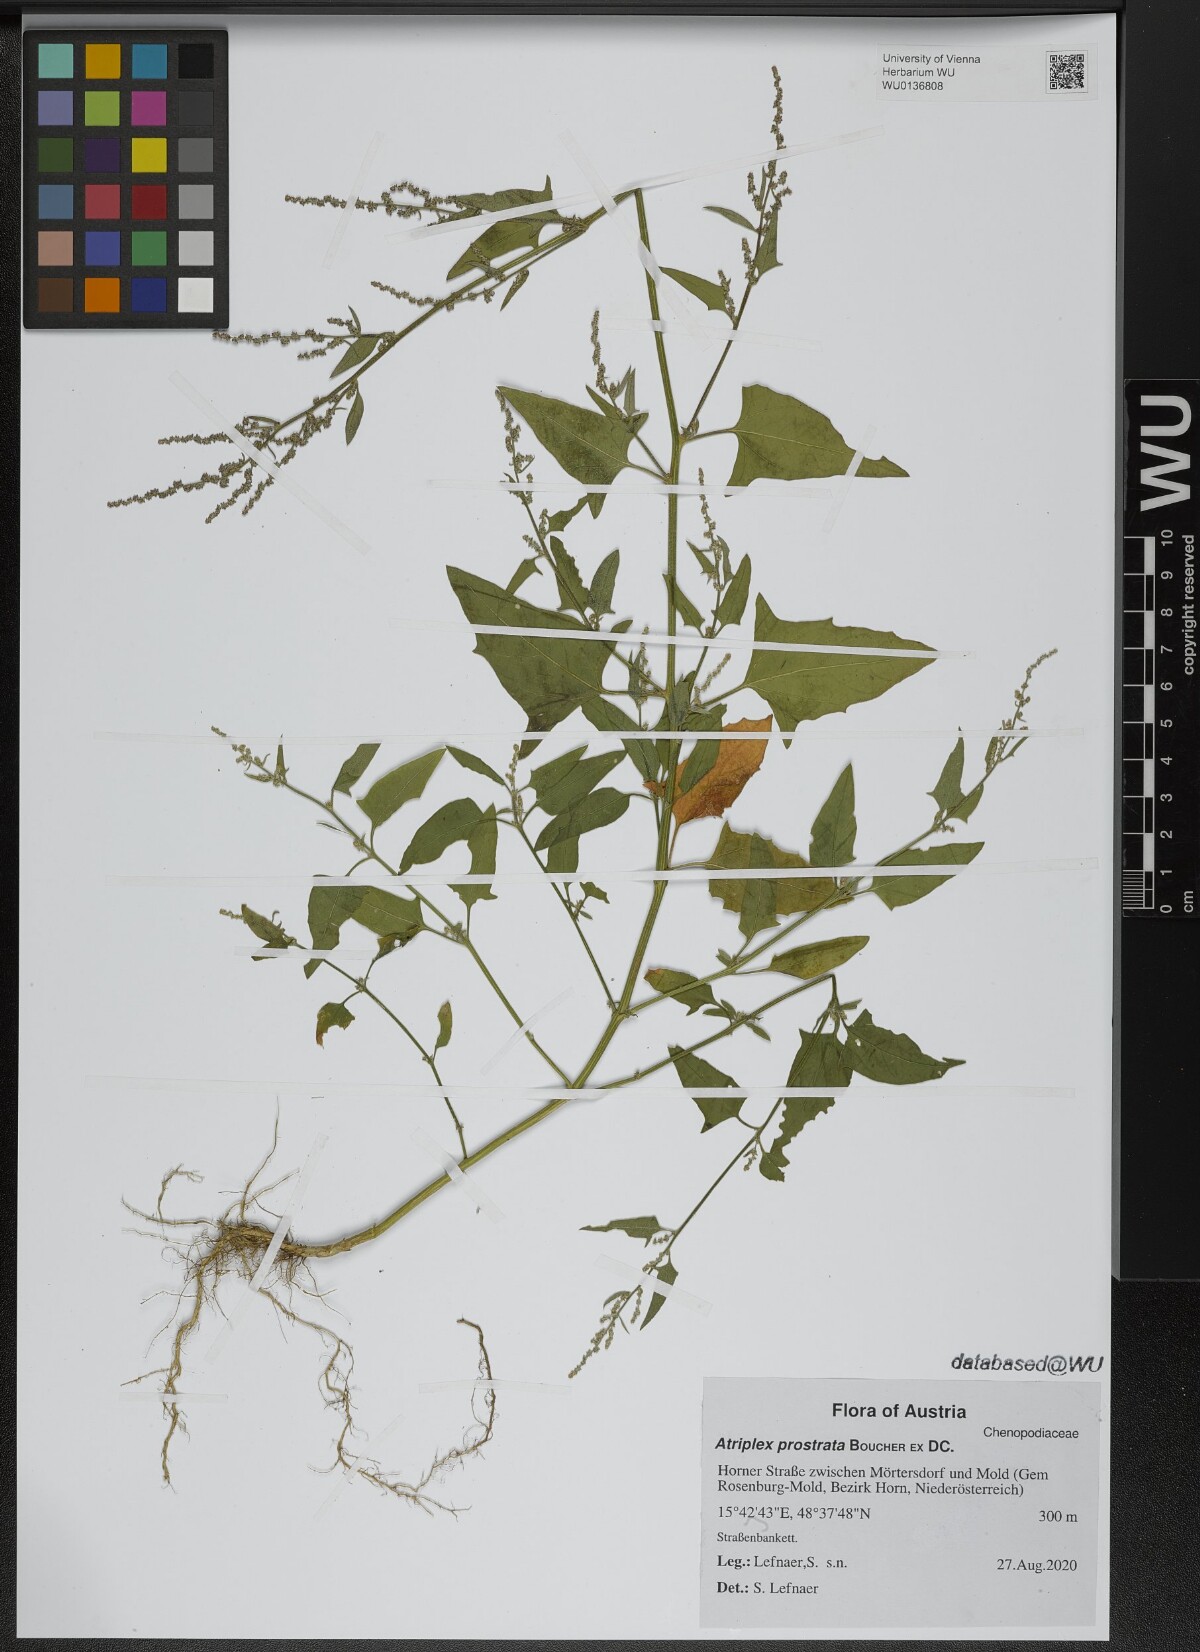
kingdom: Plantae
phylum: Tracheophyta
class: Magnoliopsida
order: Caryophyllales
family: Amaranthaceae
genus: Atriplex
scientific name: Atriplex prostrata
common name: Spear-leaved orache
